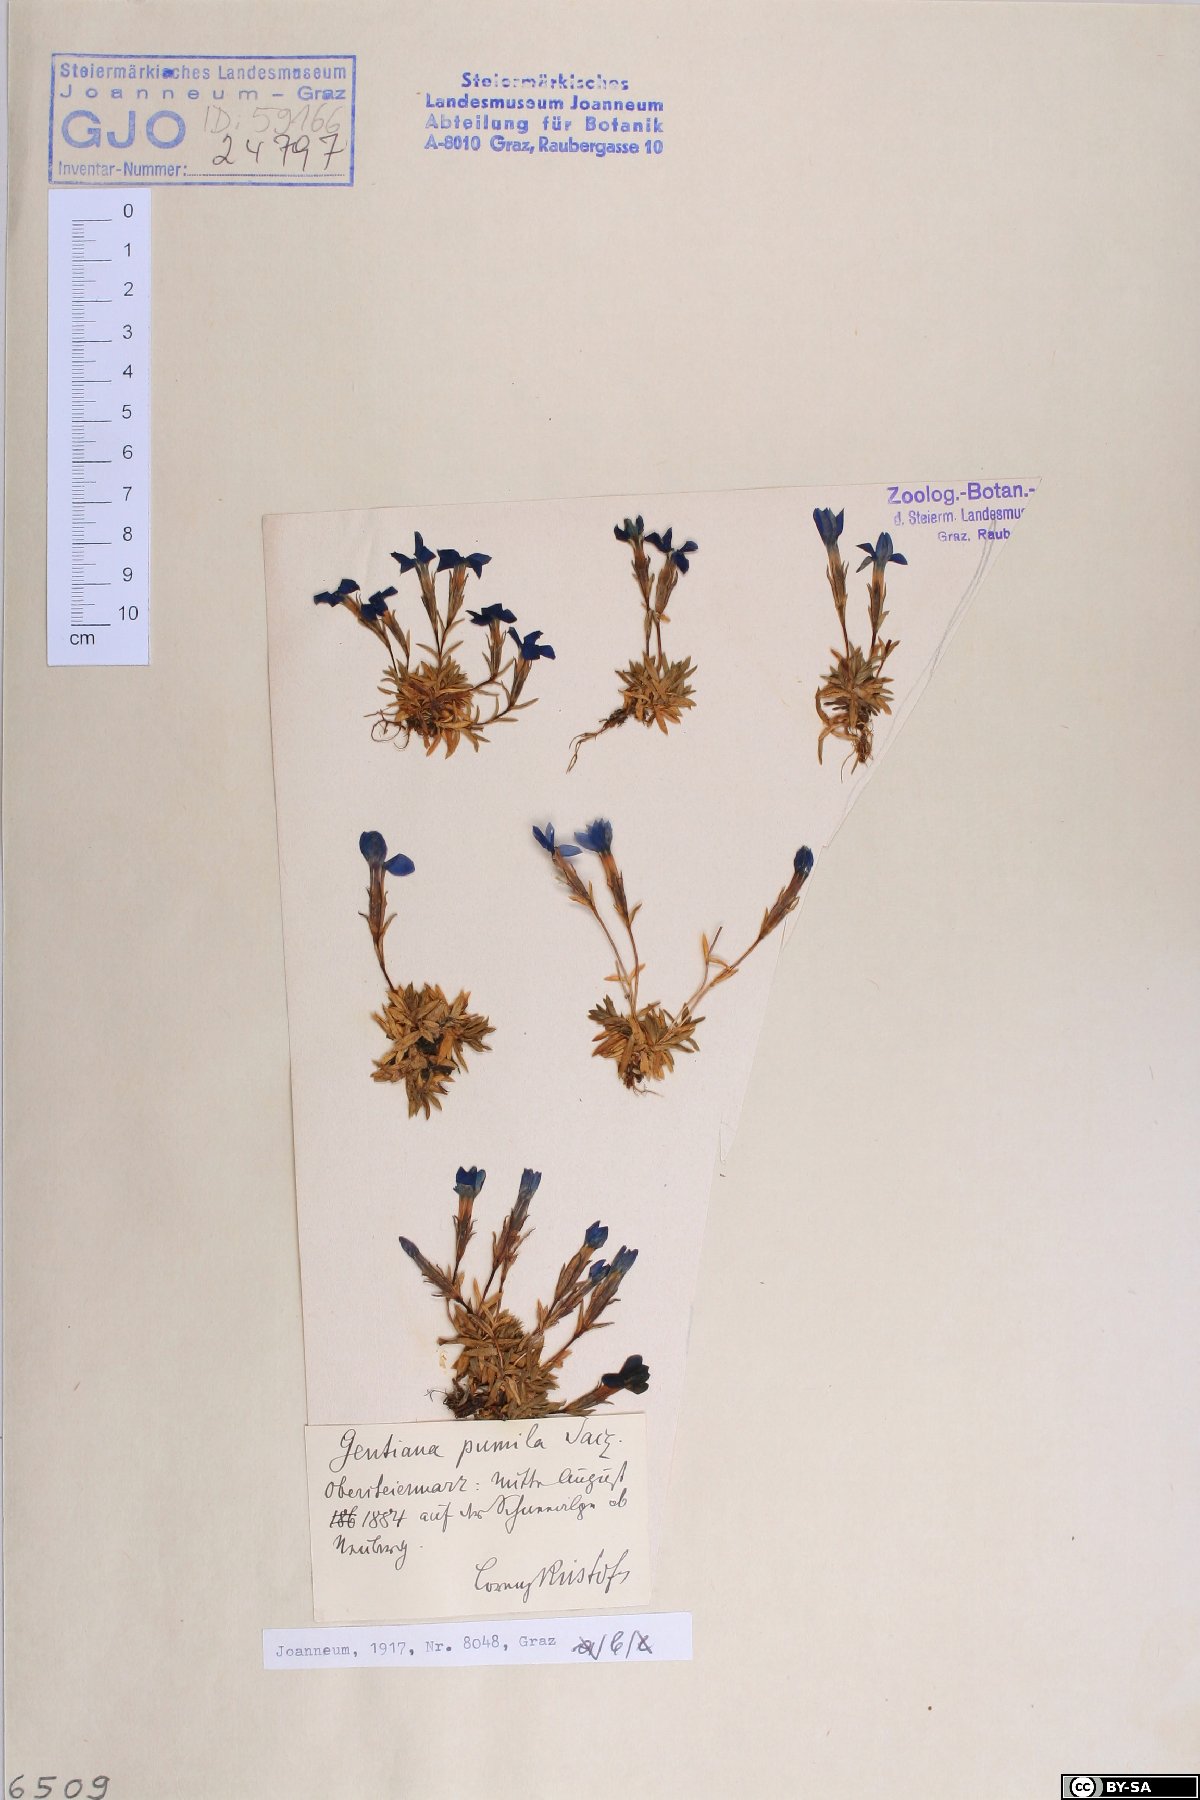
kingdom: Plantae
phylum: Tracheophyta
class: Magnoliopsida
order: Gentianales
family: Gentianaceae
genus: Gentiana
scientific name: Gentiana pumila
